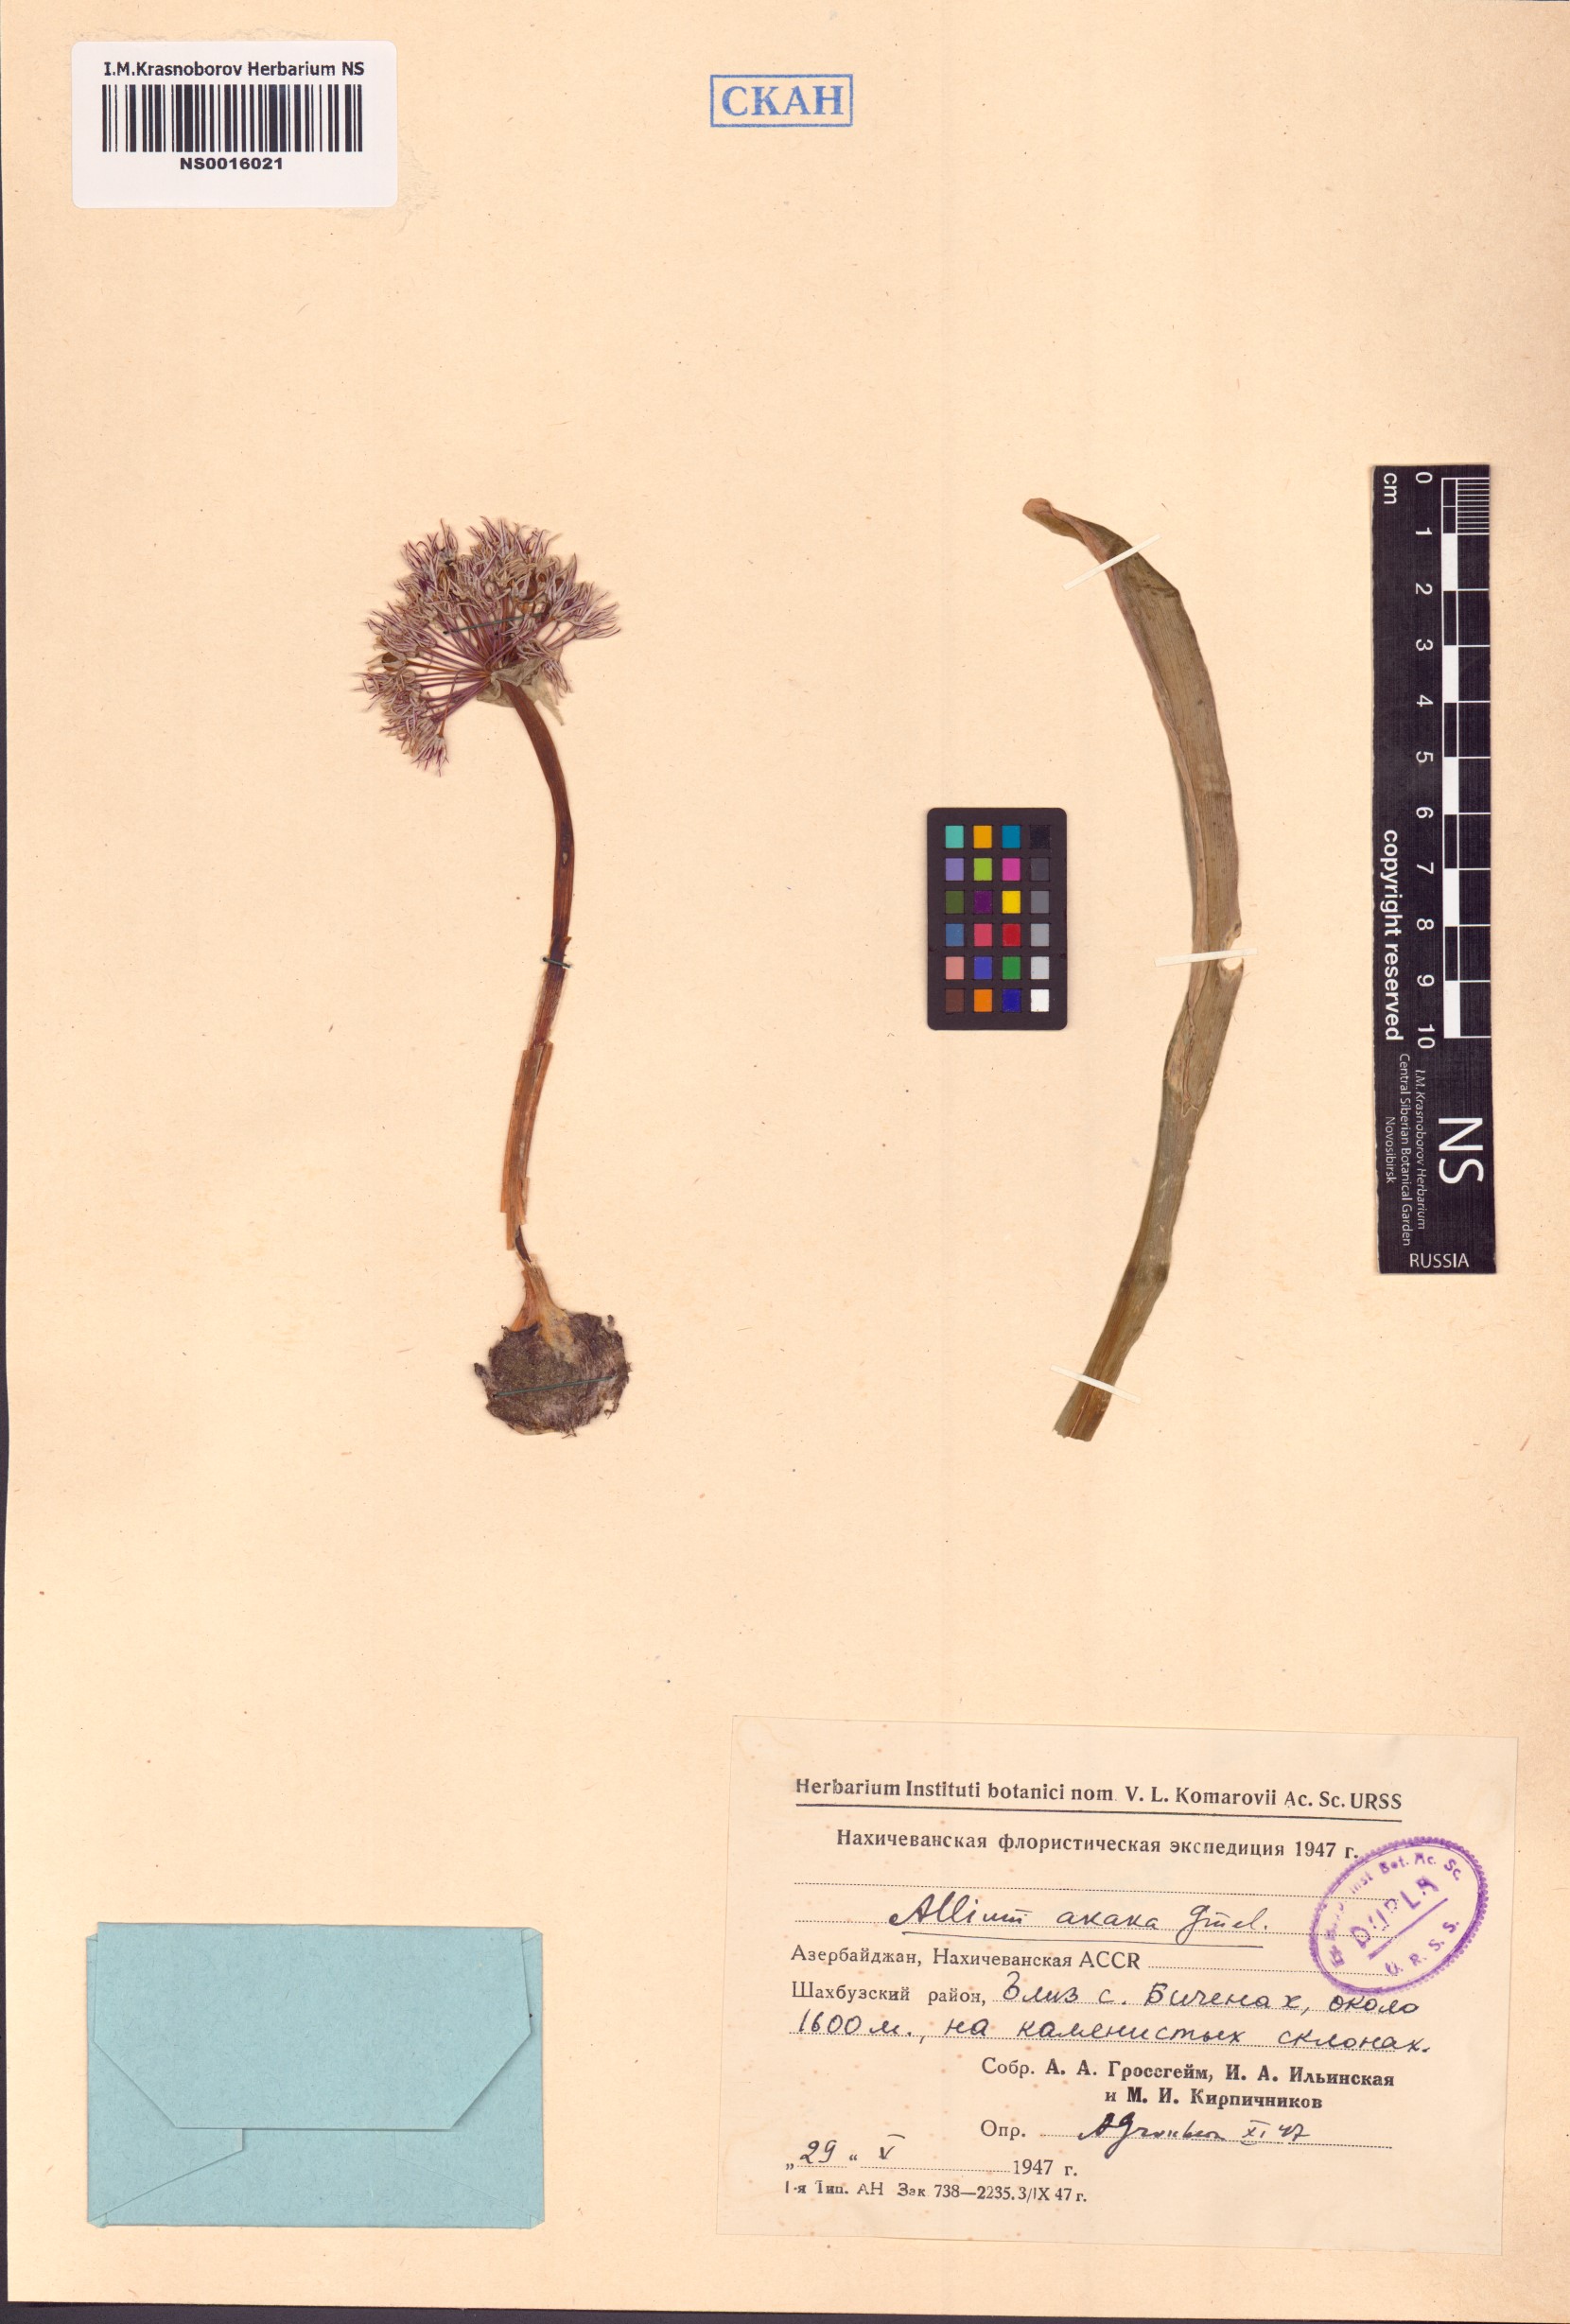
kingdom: Plantae
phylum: Tracheophyta
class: Liliopsida
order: Asparagales
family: Amaryllidaceae
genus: Allium
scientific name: Allium akaka
